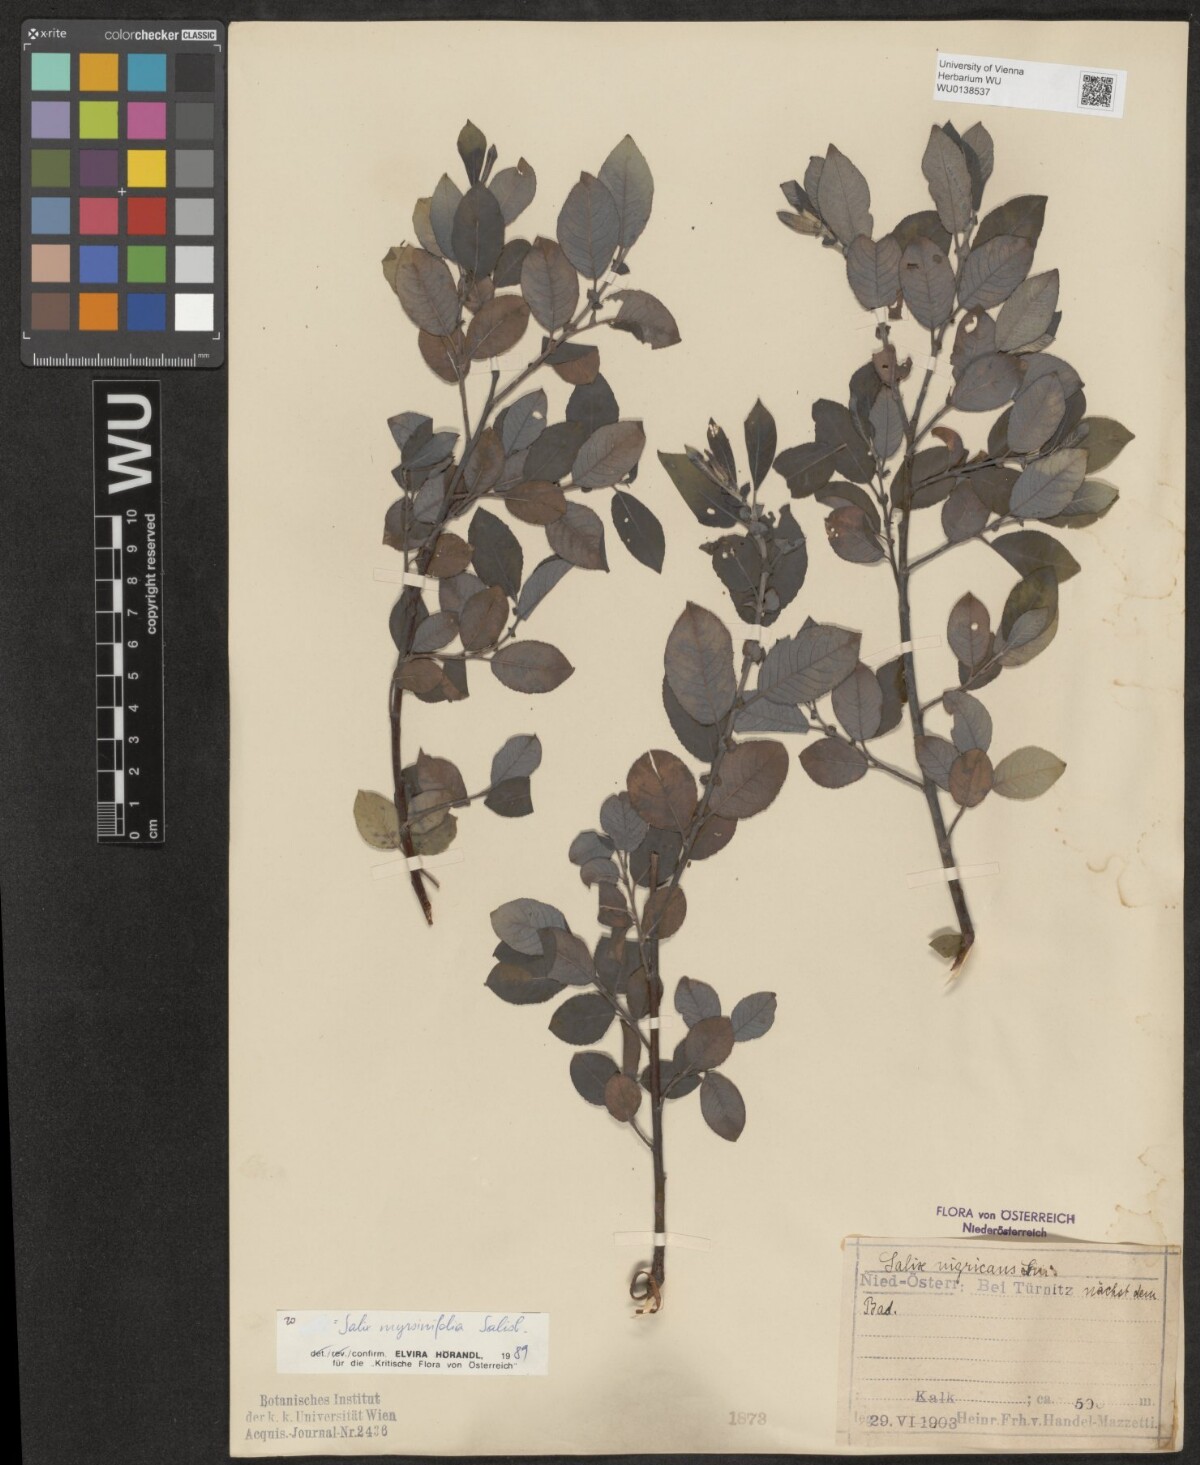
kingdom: Plantae
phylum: Tracheophyta
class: Magnoliopsida
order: Malpighiales
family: Salicaceae
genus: Salix
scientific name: Salix myrsinifolia
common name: Dark-leaved willow
